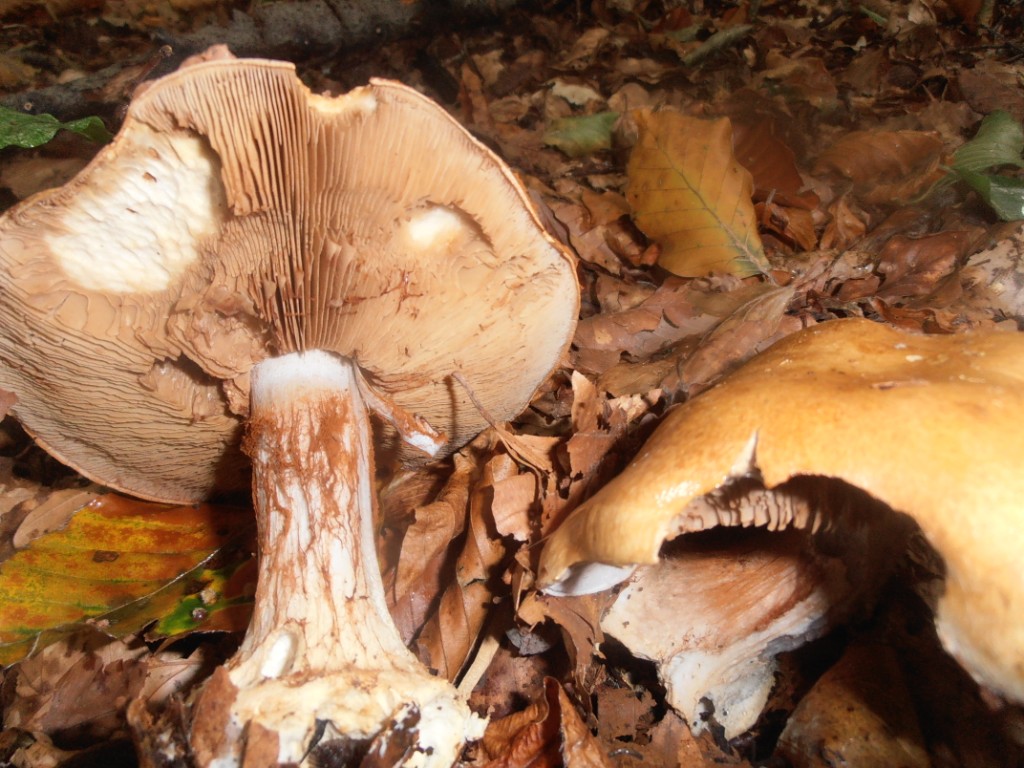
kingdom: Fungi
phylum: Basidiomycota
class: Agaricomycetes
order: Agaricales
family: Cortinariaceae
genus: Cortinarius
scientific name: Cortinarius anserinus
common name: bøge-slørhat
